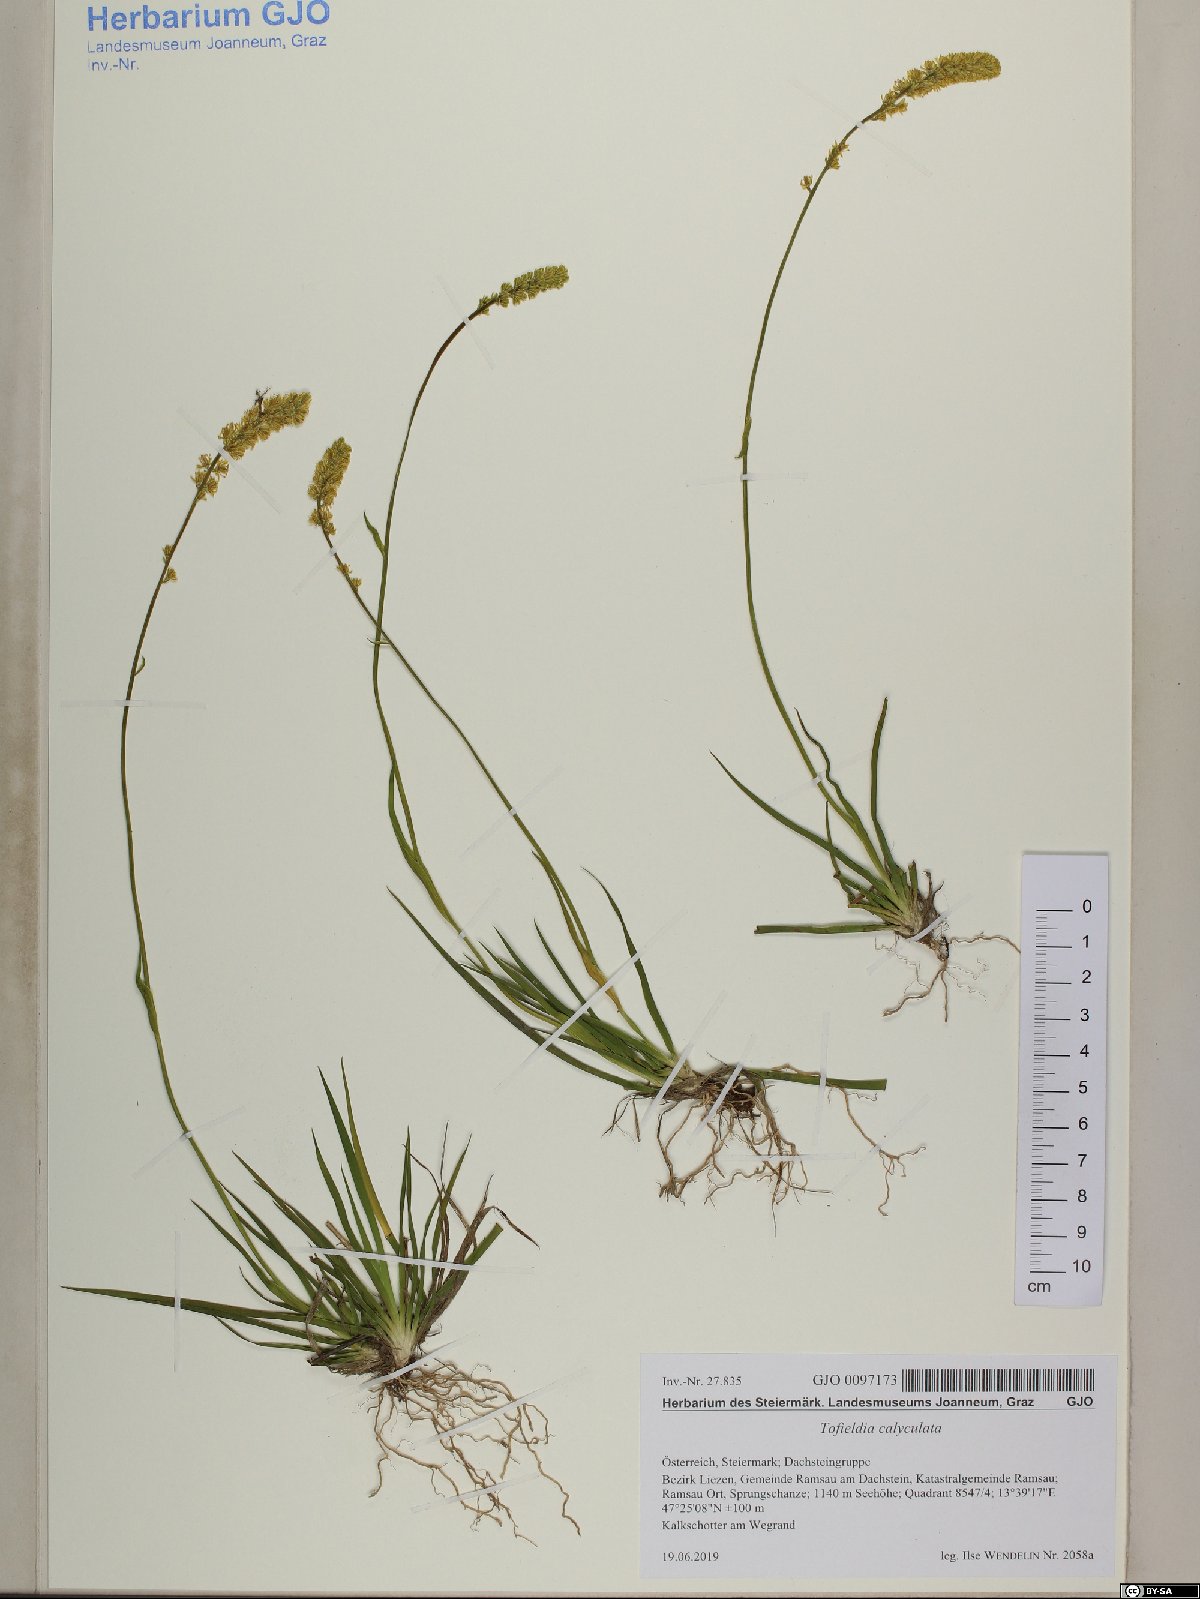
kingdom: Plantae
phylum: Tracheophyta
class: Liliopsida
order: Alismatales
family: Tofieldiaceae
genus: Tofieldia
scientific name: Tofieldia calyculata
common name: German-asphodel
